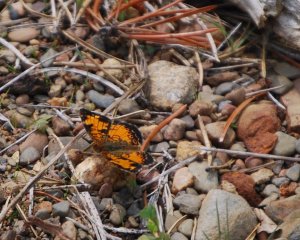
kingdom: Animalia
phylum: Arthropoda
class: Insecta
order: Lepidoptera
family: Nymphalidae
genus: Phyciodes
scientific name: Phyciodes tharos
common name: Northern Crescent
